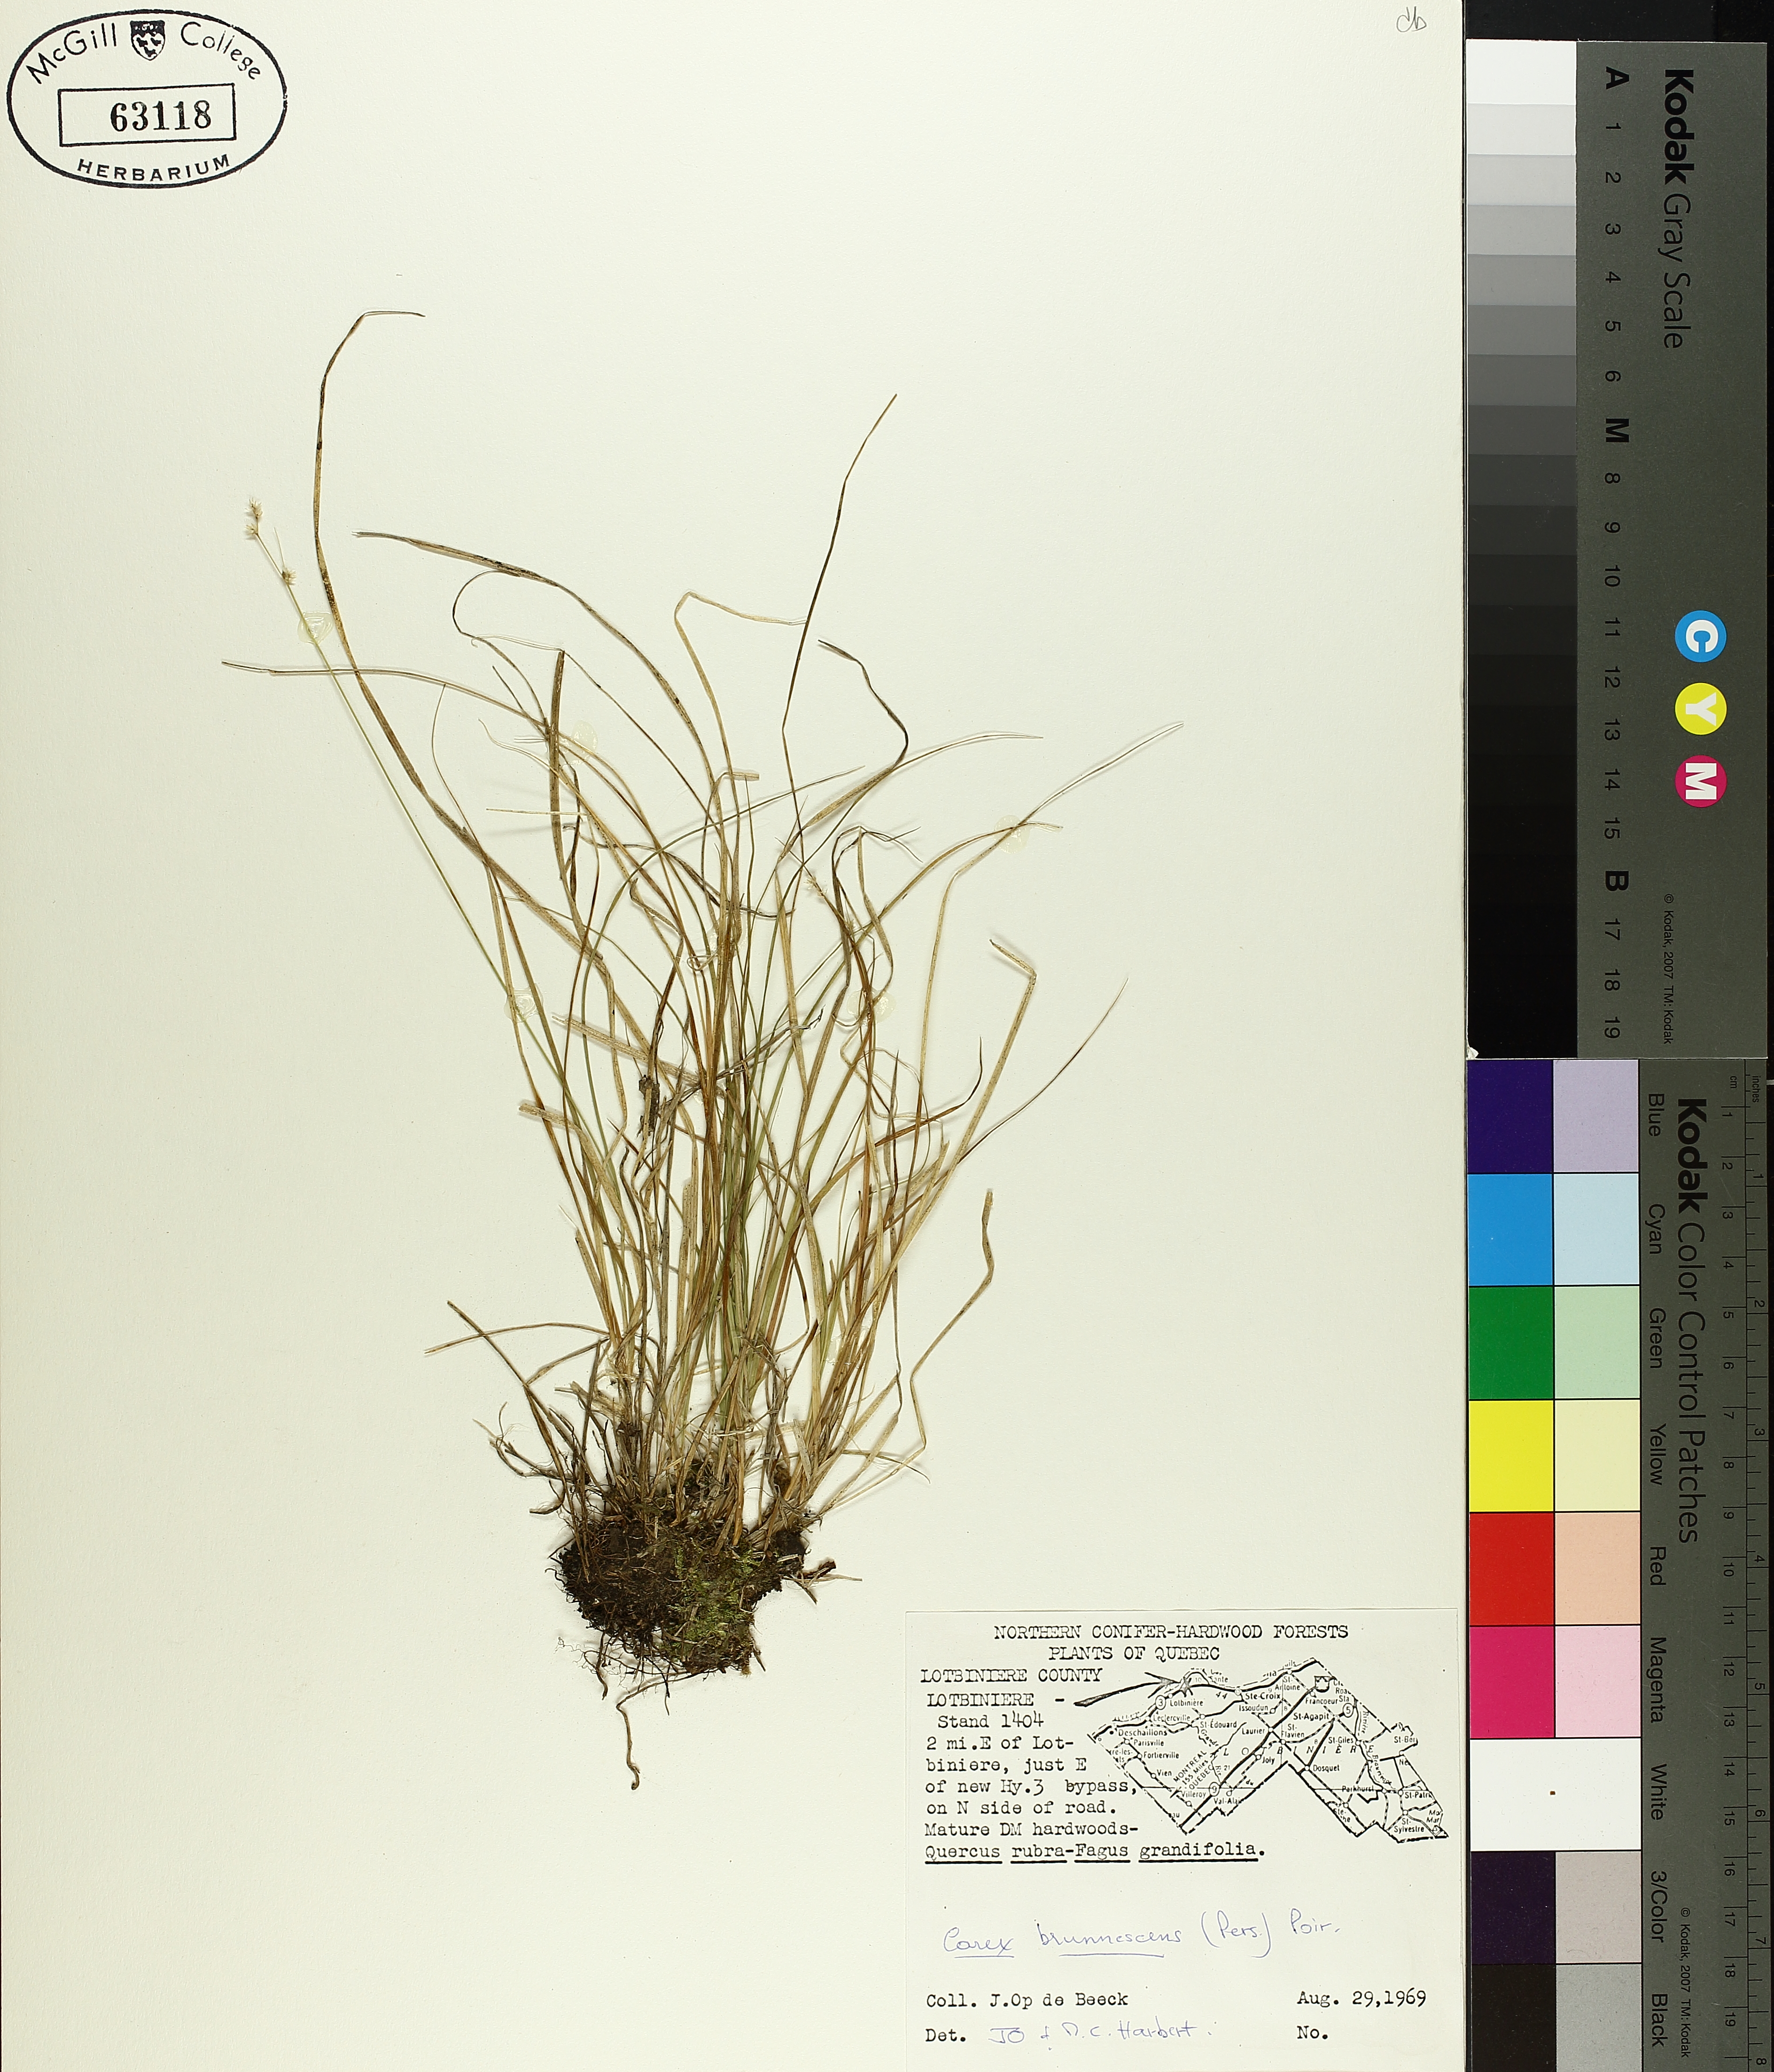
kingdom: Plantae
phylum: Tracheophyta
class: Liliopsida
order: Poales
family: Cyperaceae
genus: Carex
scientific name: Carex brunnescens
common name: Brown sedge
